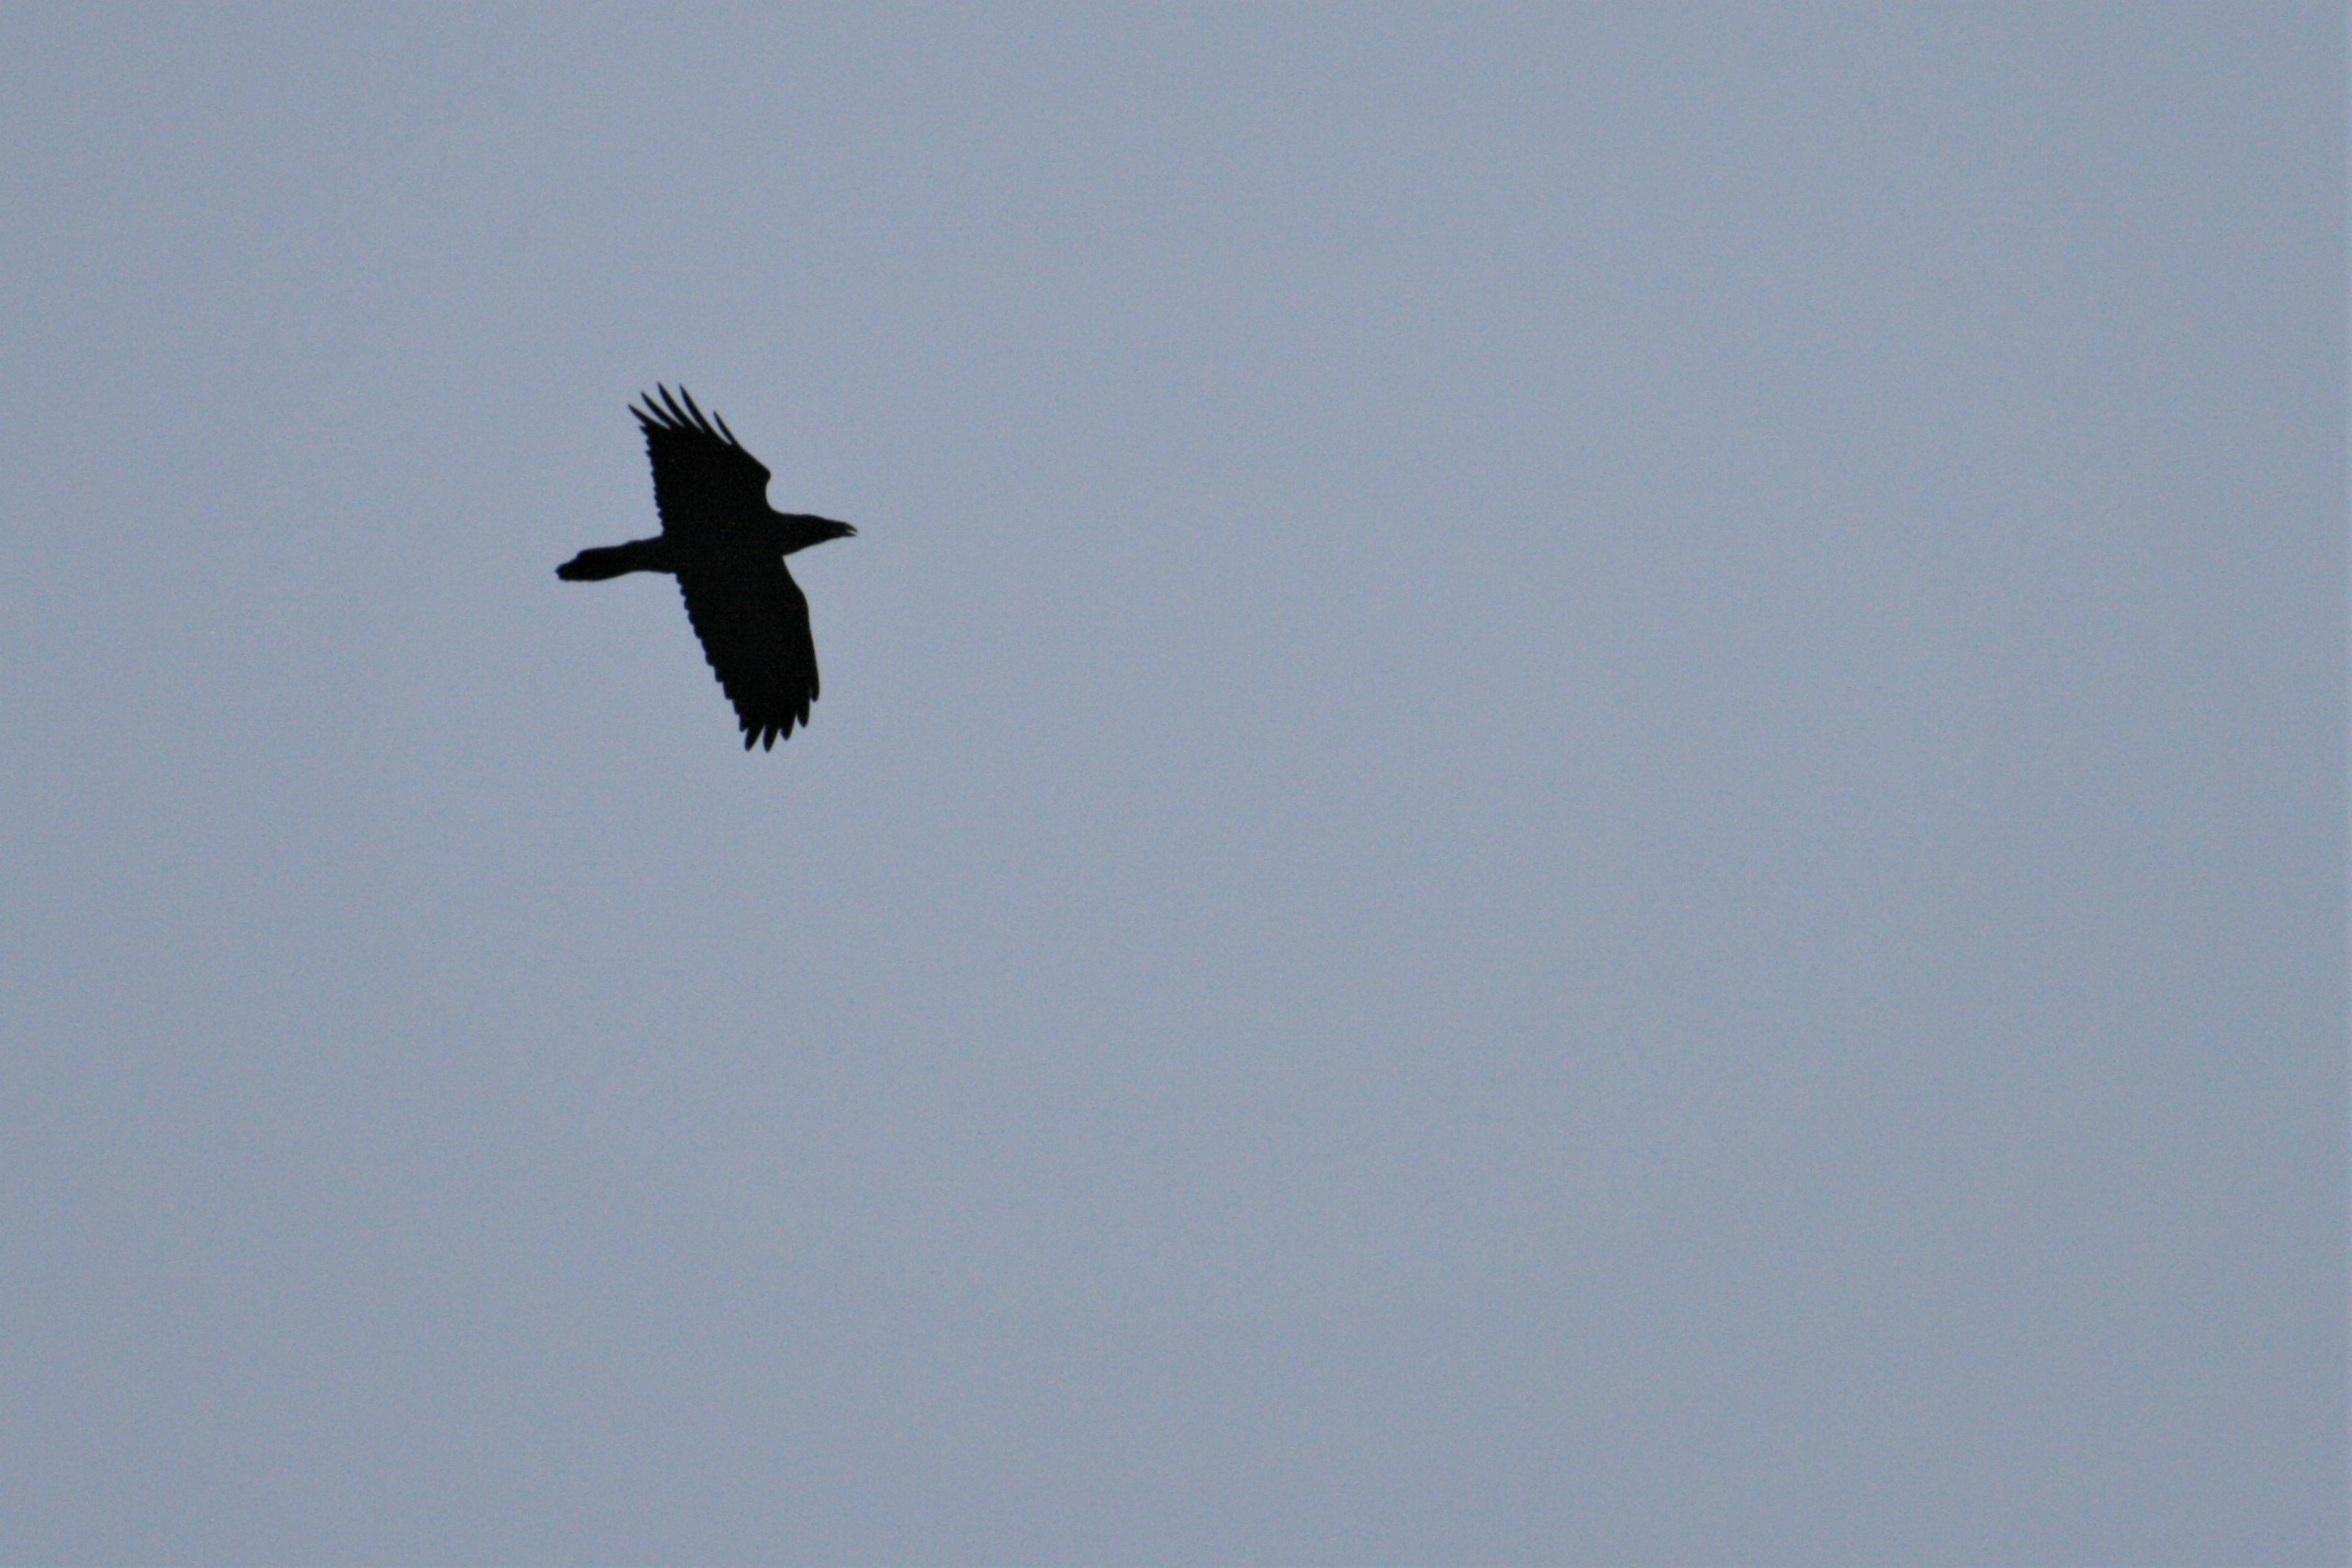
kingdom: Animalia
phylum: Chordata
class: Aves
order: Passeriformes
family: Corvidae
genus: Corvus
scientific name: Corvus corax
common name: Ravn
